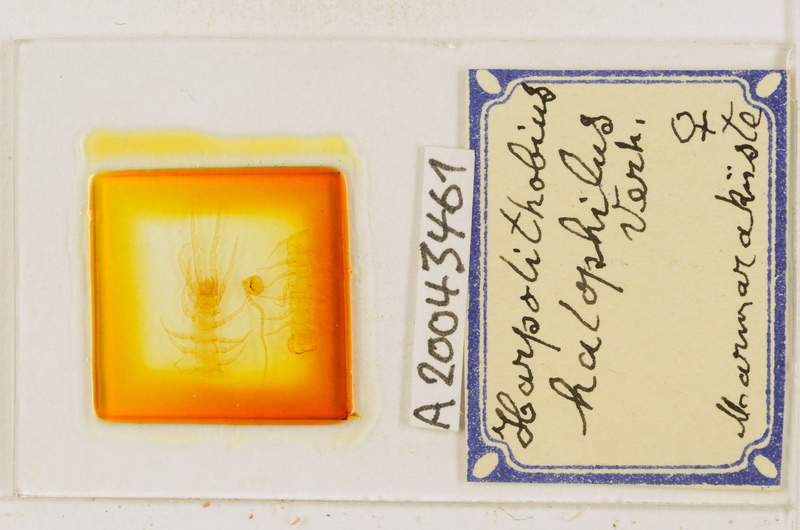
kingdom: Animalia
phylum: Arthropoda
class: Chilopoda
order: Lithobiomorpha
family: Lithobiidae
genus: Harpolithobius
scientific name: Harpolithobius halophilus
